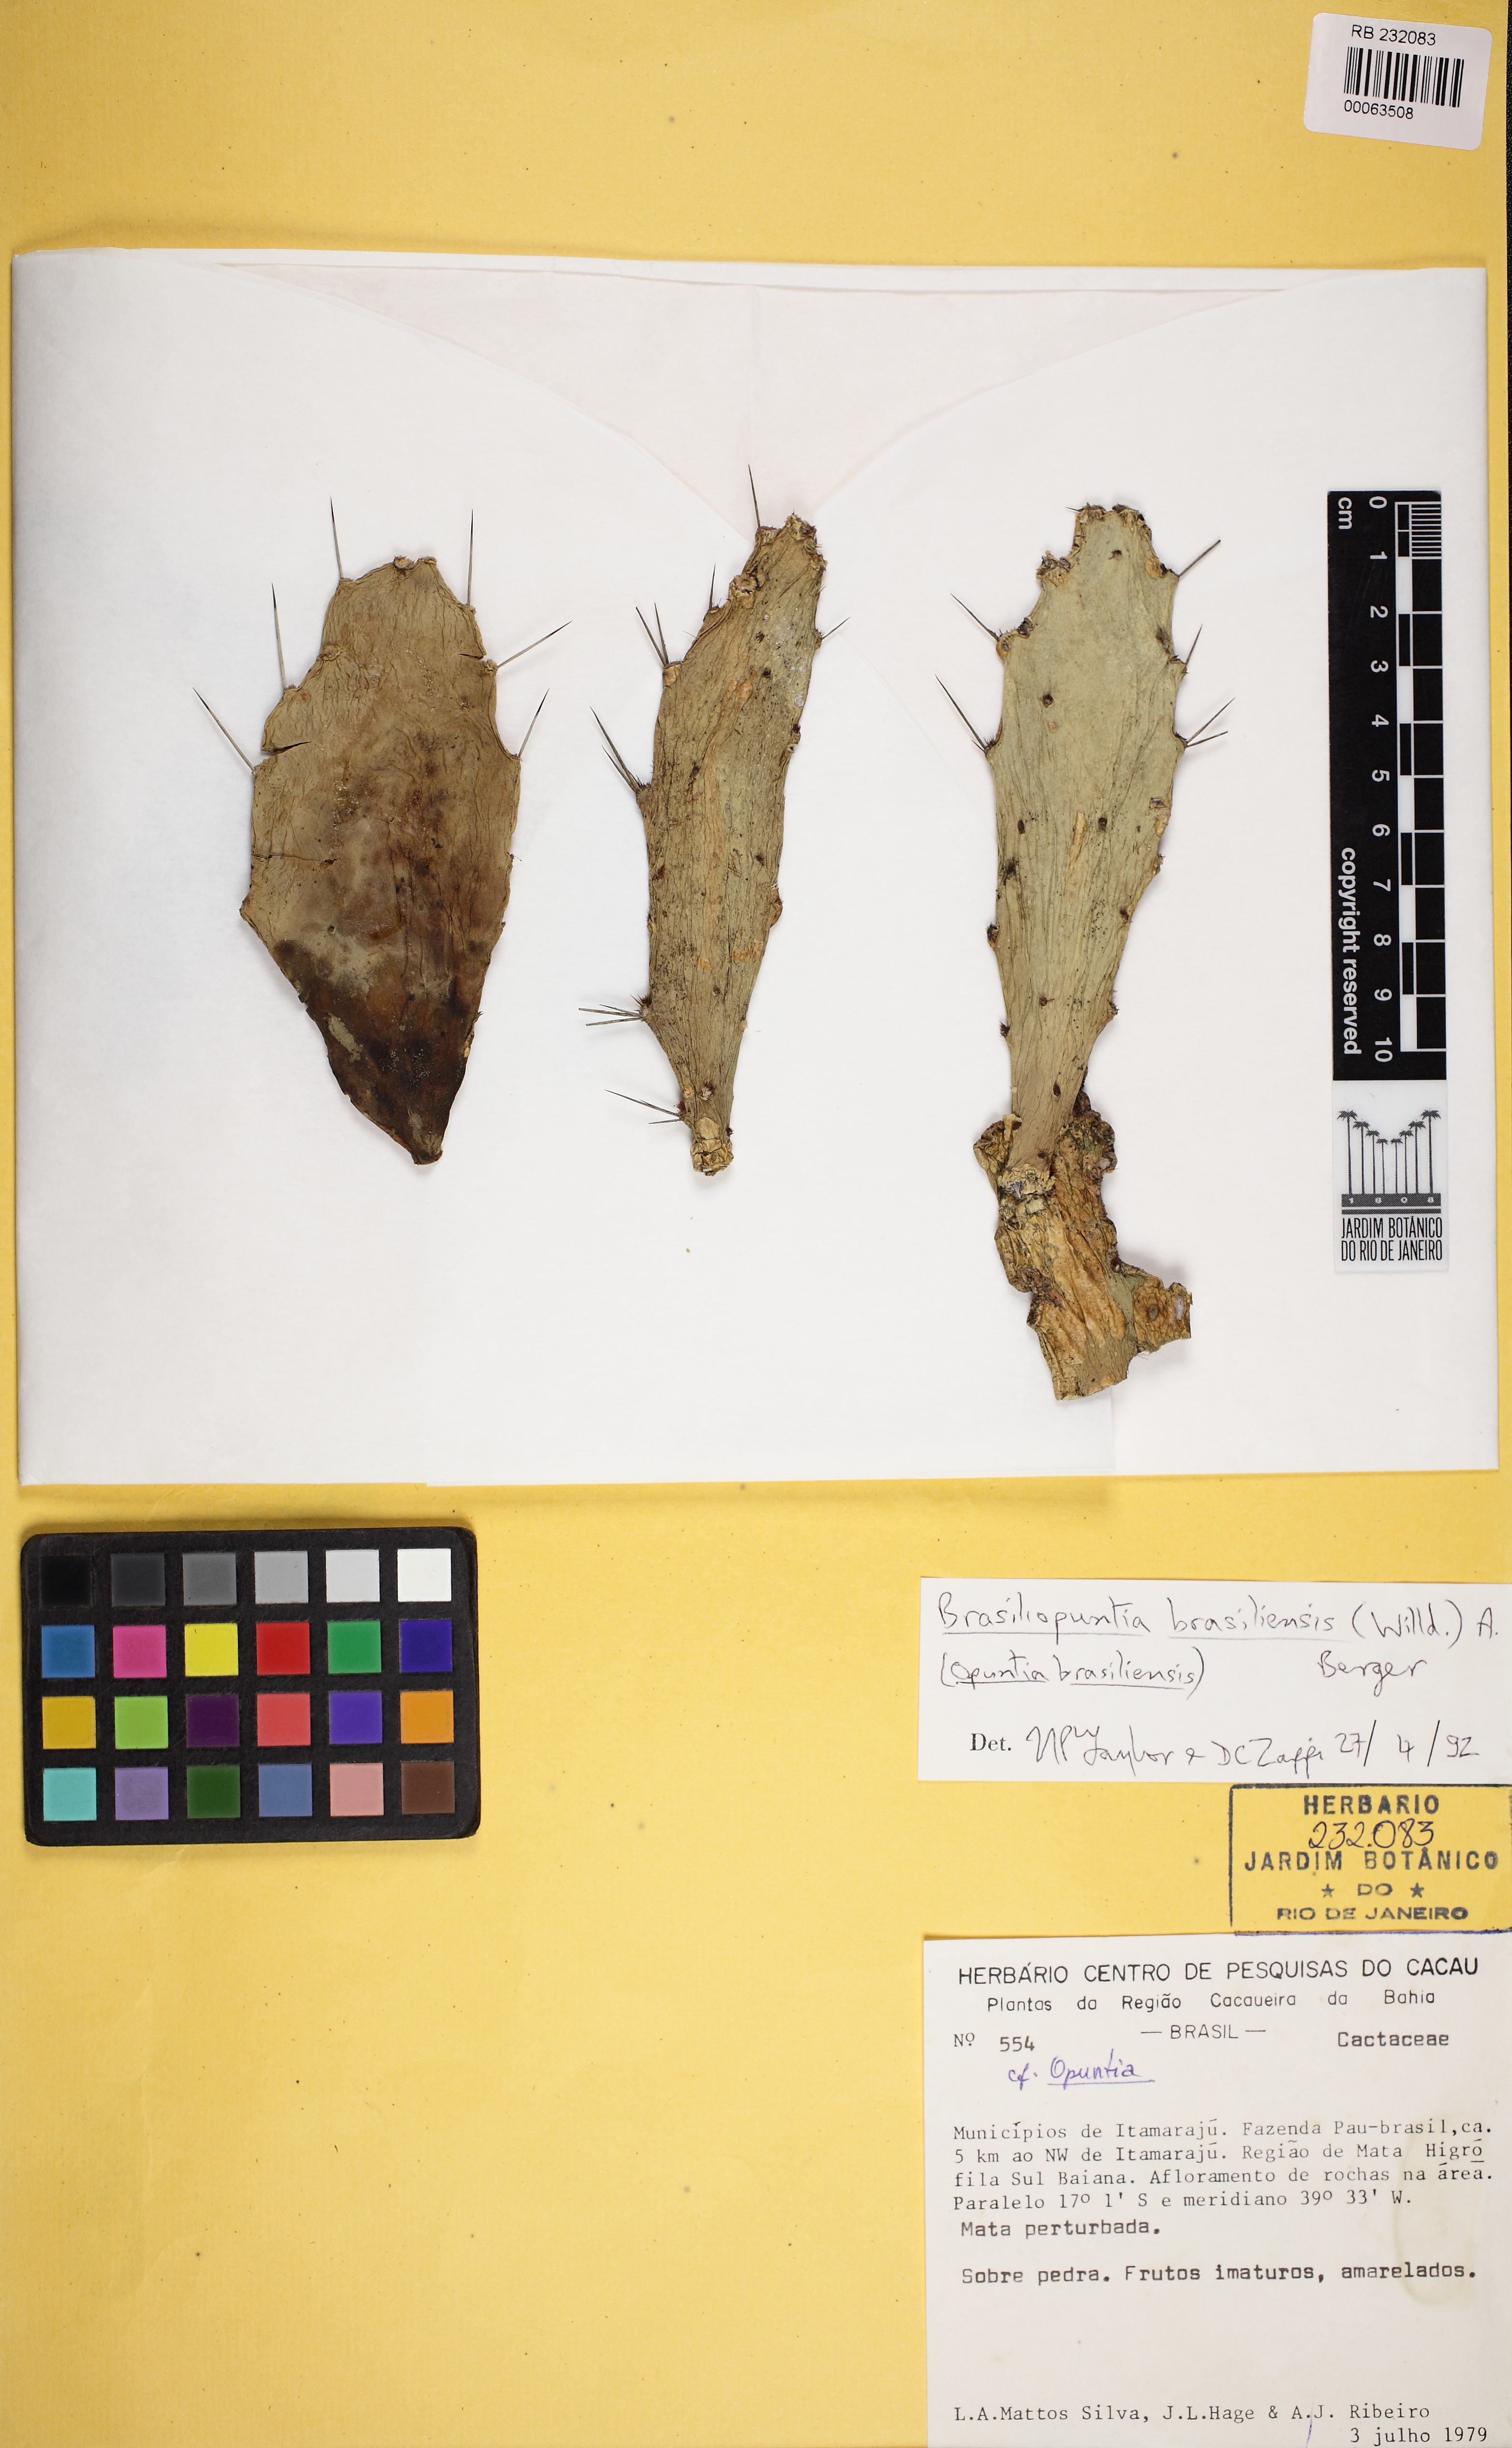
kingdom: Plantae
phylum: Tracheophyta
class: Magnoliopsida
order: Caryophyllales
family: Cactaceae
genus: Brasiliopuntia
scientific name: Brasiliopuntia brasiliensis
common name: Brazilian pricklypear
